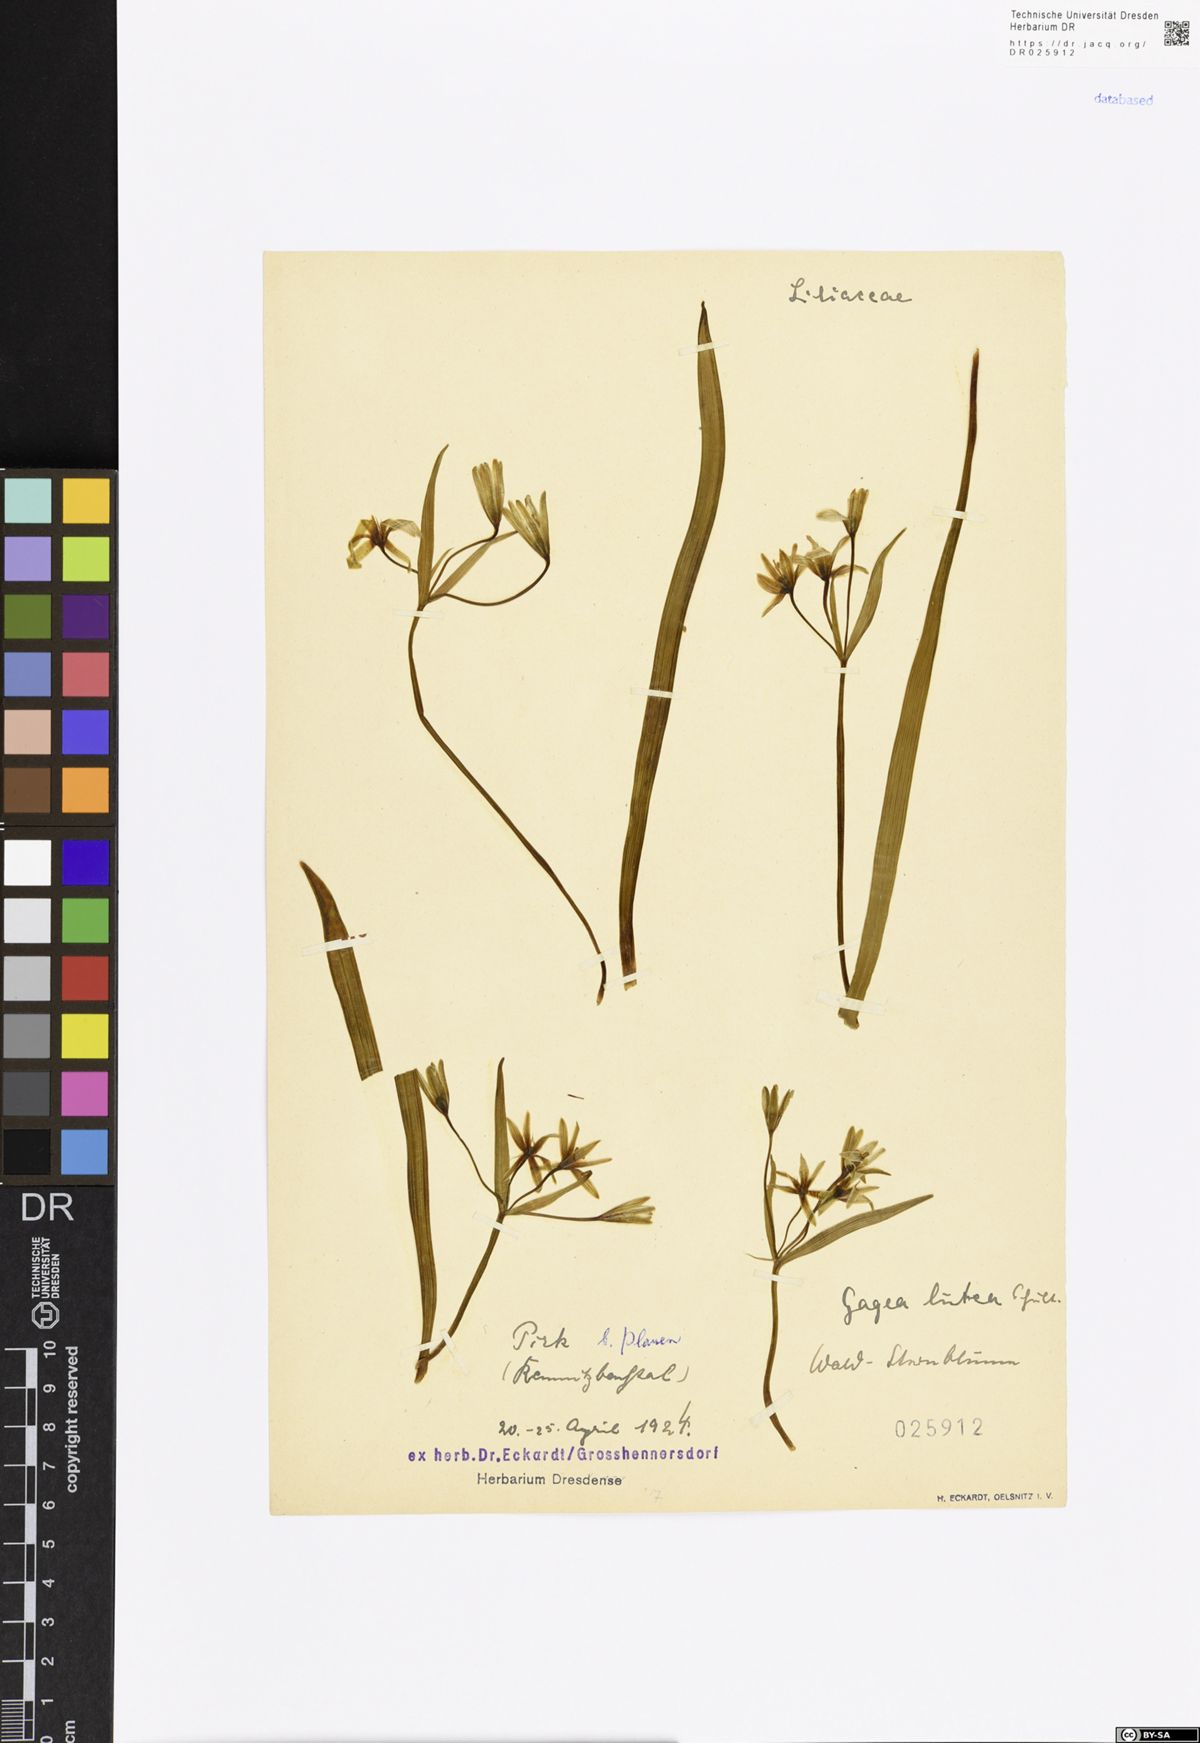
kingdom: Plantae
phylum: Tracheophyta
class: Liliopsida
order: Liliales
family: Liliaceae
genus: Gagea
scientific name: Gagea lutea
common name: Yellow star-of-bethlehem
